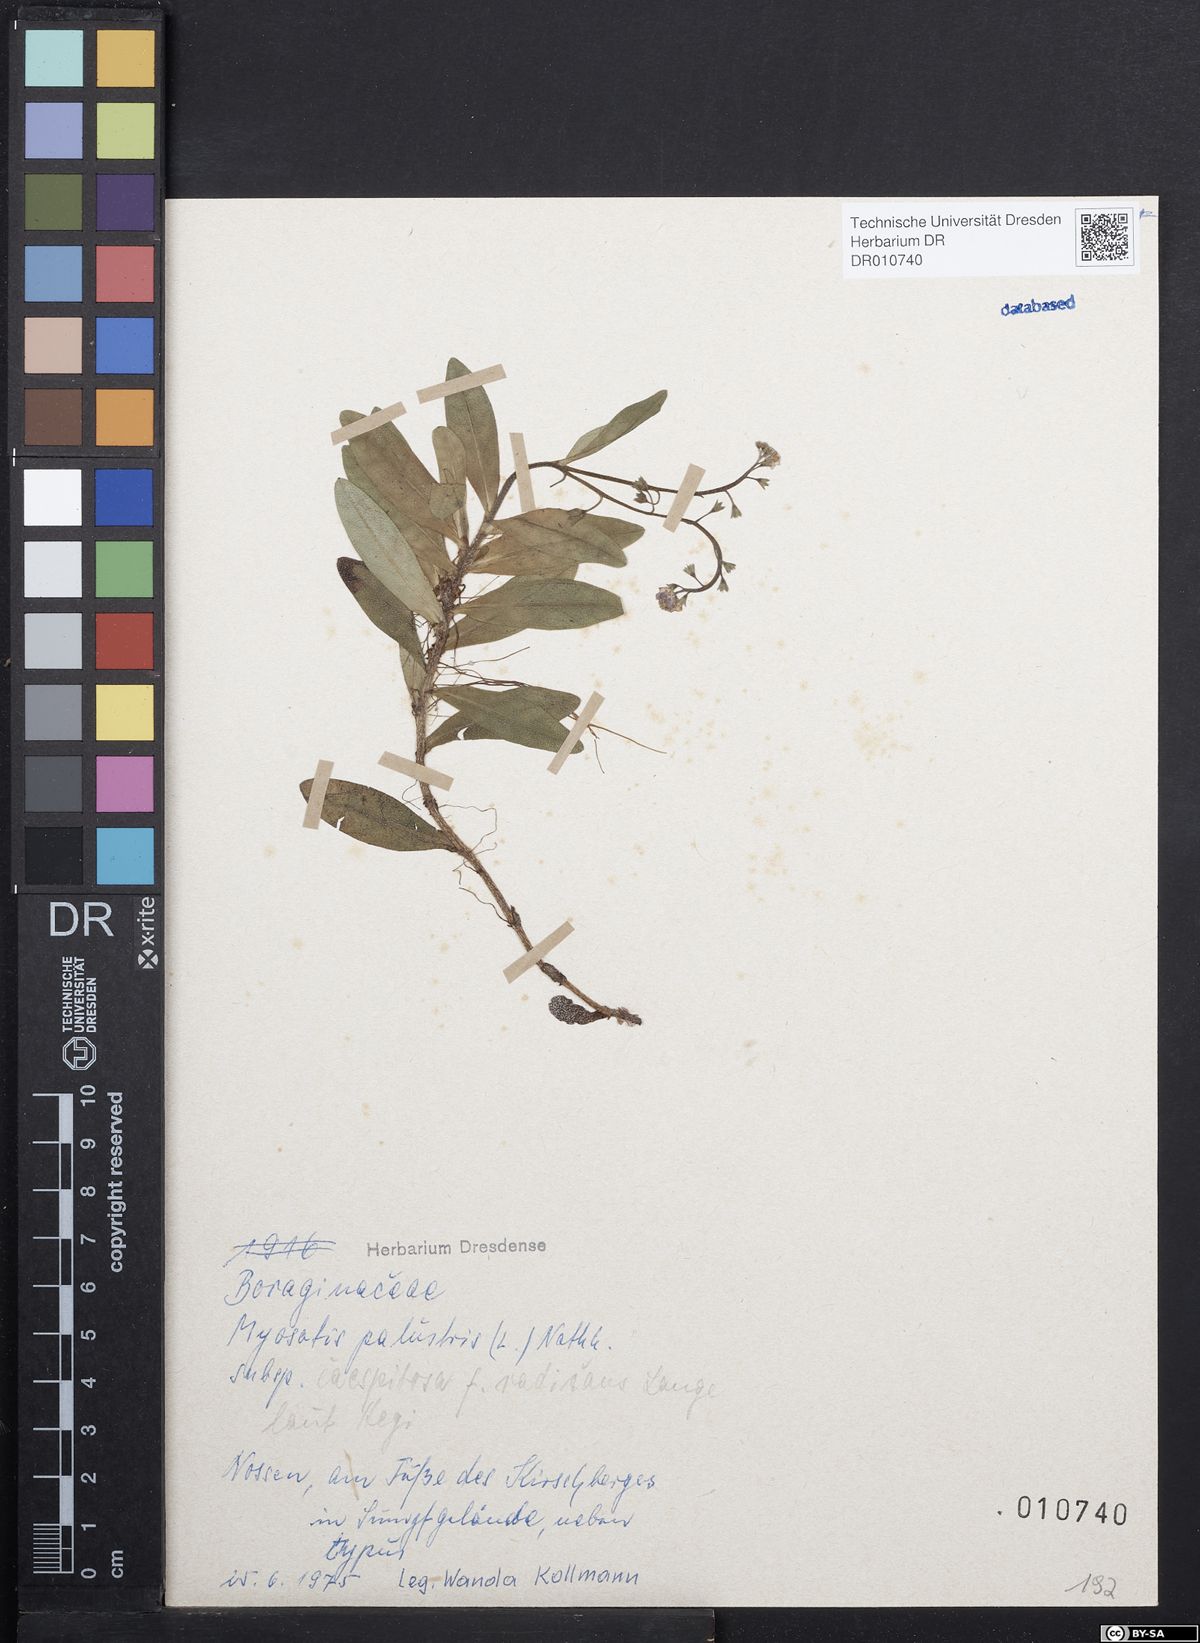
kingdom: Plantae
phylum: Tracheophyta
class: Magnoliopsida
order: Boraginales
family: Boraginaceae
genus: Myosotis
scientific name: Myosotis scorpioides
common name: Water forget-me-not
